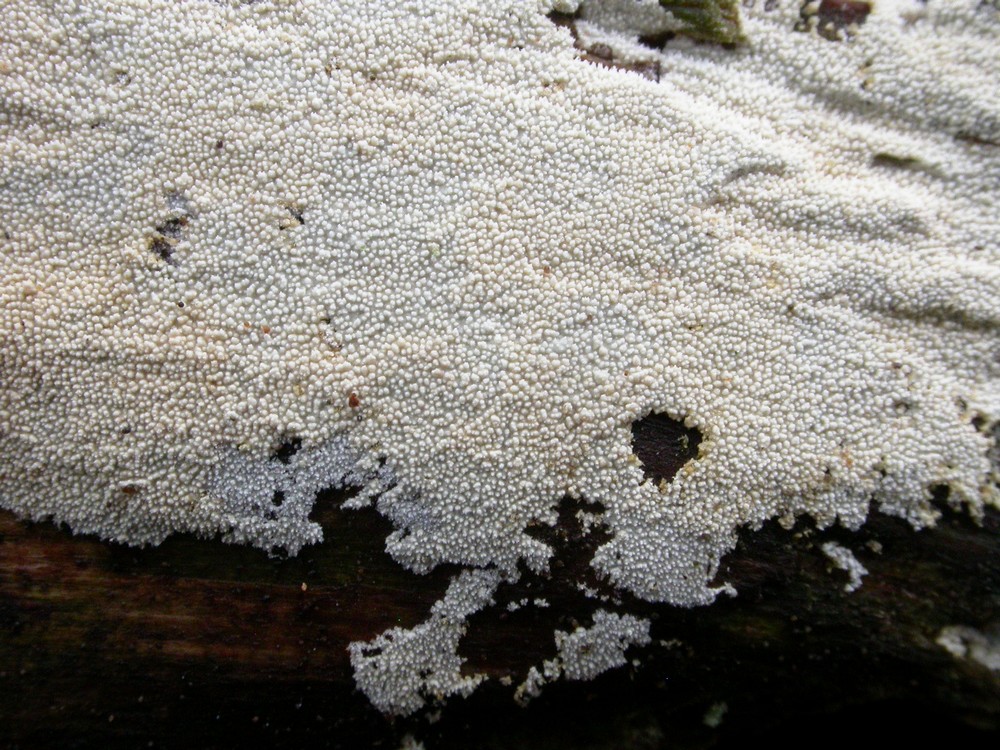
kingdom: Fungi
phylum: Basidiomycota
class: Agaricomycetes
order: Hymenochaetales
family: Rickenellaceae
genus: Resinicium
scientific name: Resinicium bicolor
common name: almindelig vokstand
